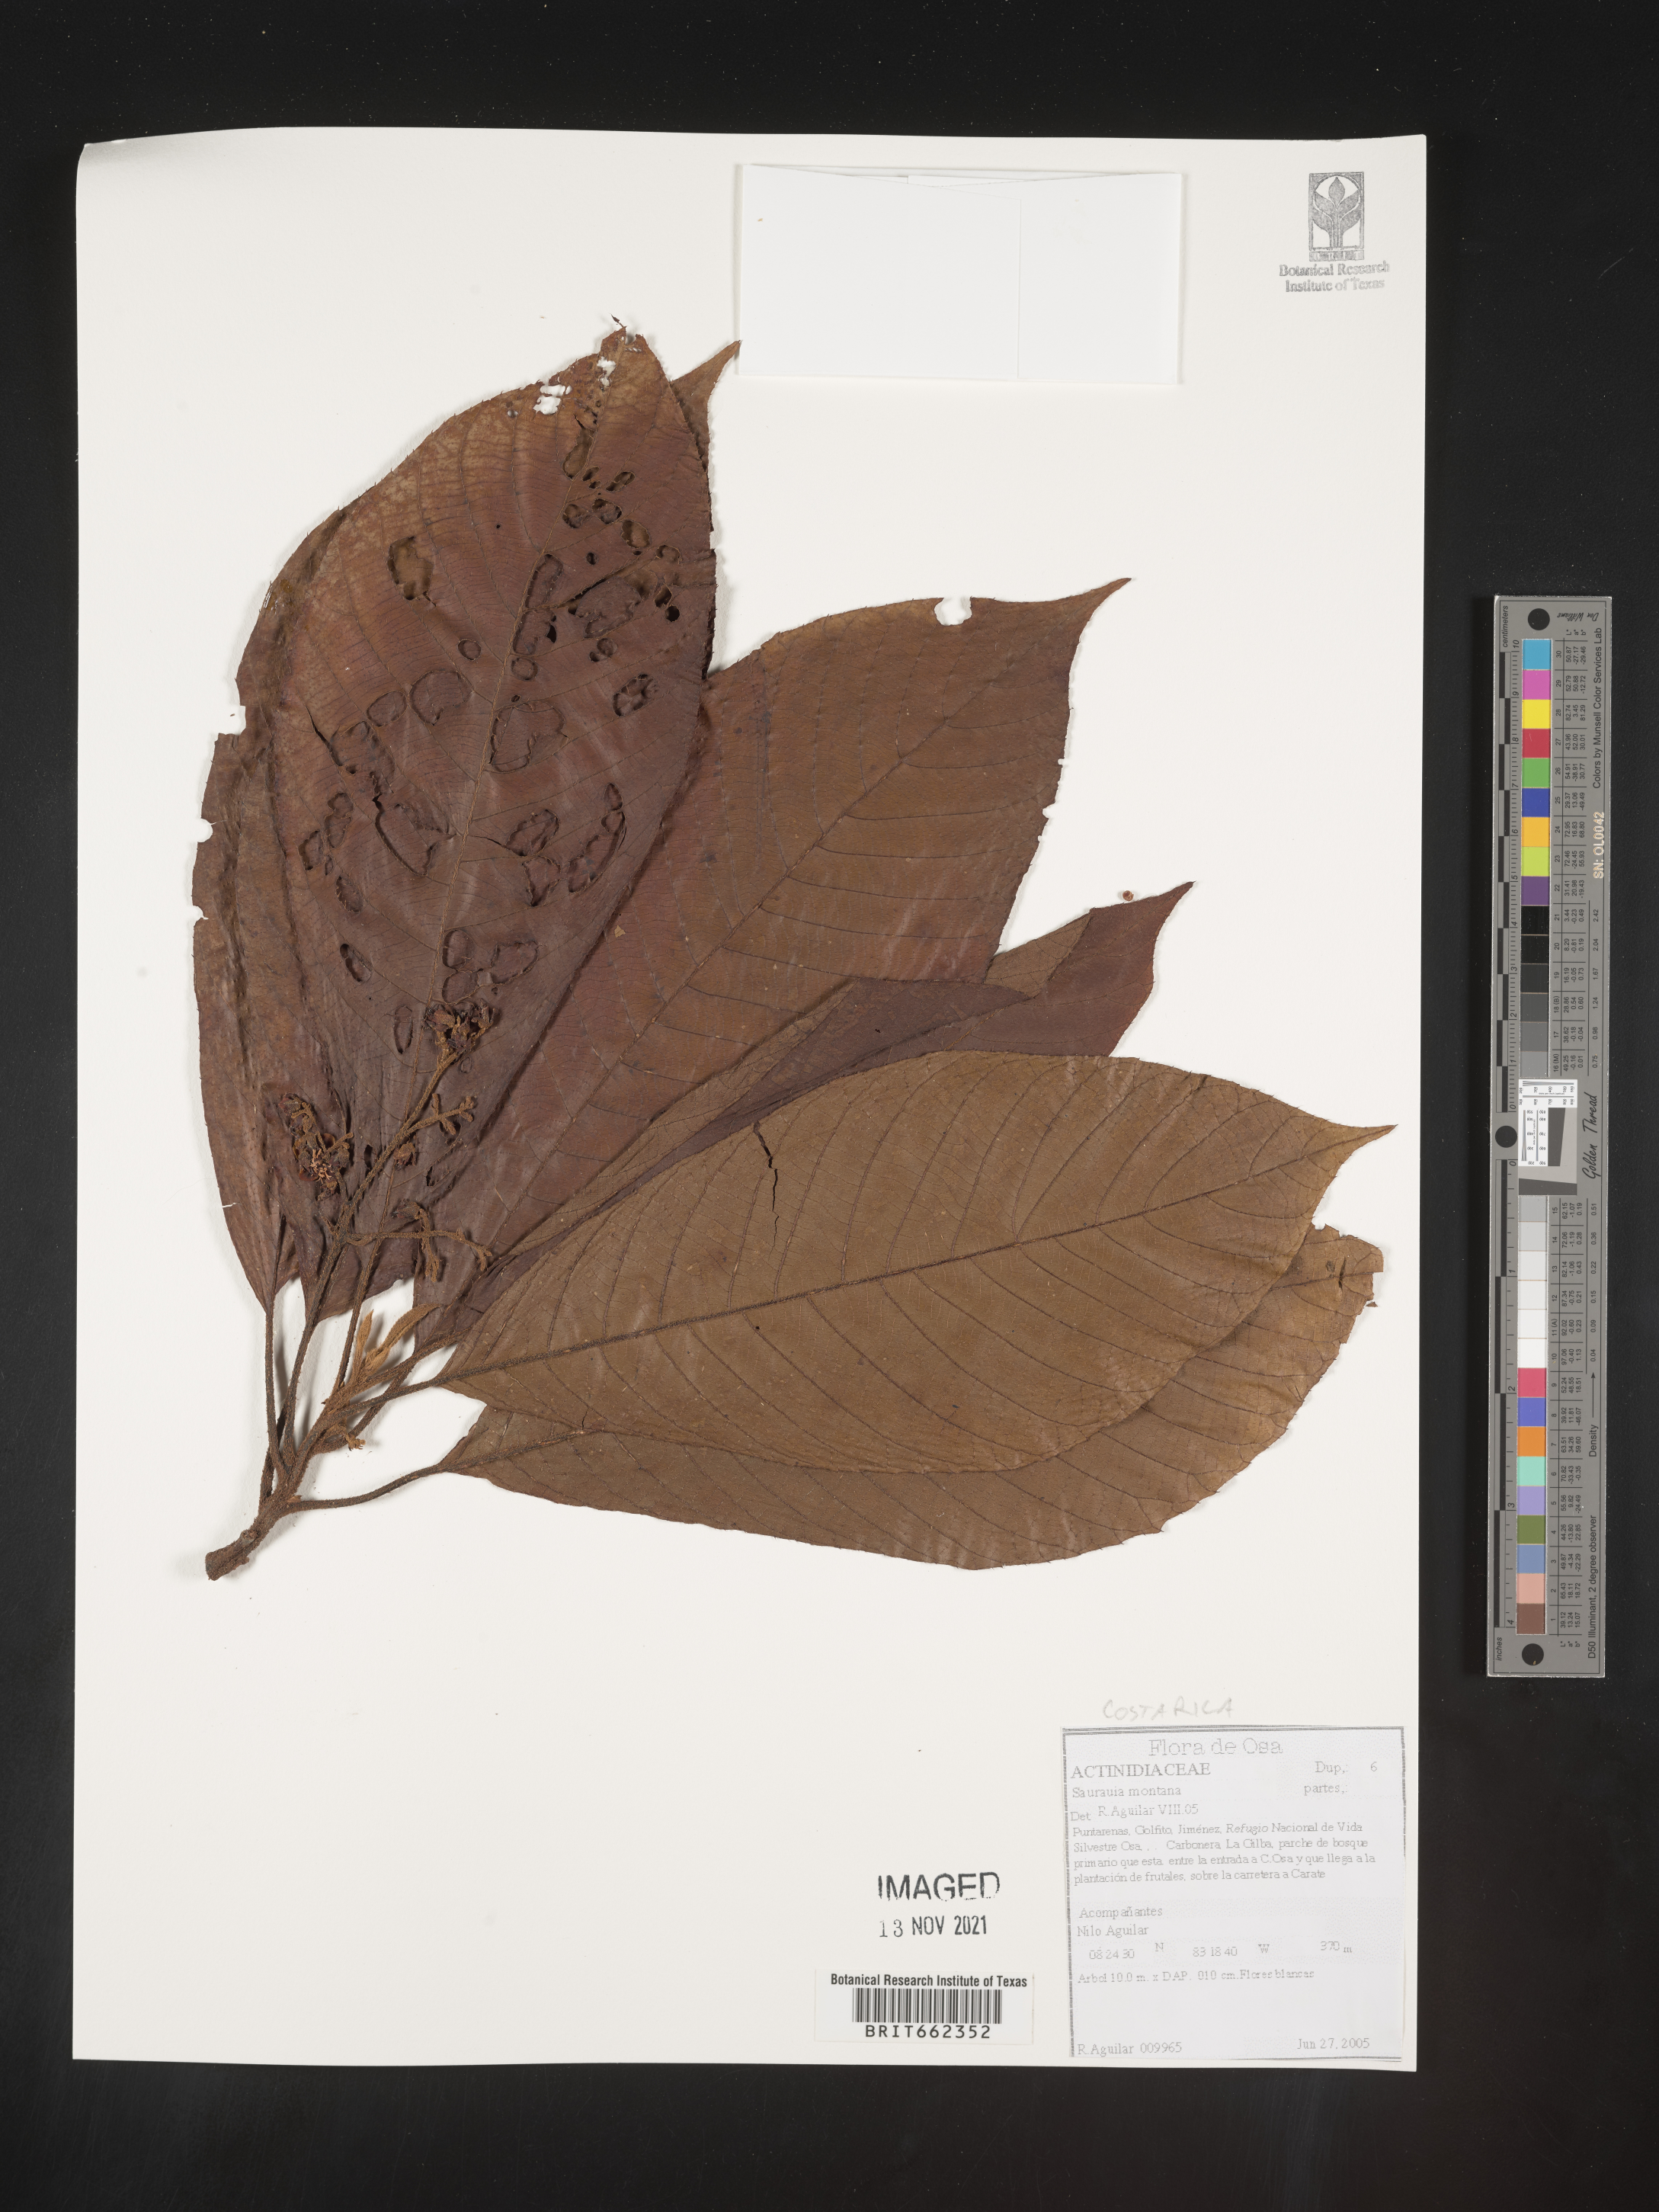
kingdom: Plantae
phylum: Tracheophyta
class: Magnoliopsida
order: Ericales
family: Actinidiaceae
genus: Saurauia
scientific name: Saurauia
